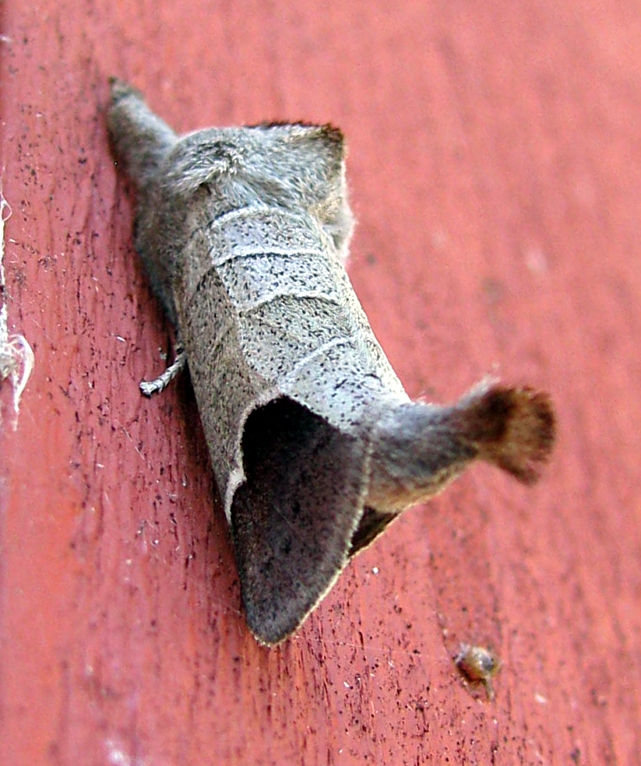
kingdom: Animalia
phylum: Arthropoda
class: Insecta
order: Lepidoptera
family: Notodontidae
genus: Clostera
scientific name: Clostera curtula
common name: Chocolate-tip
